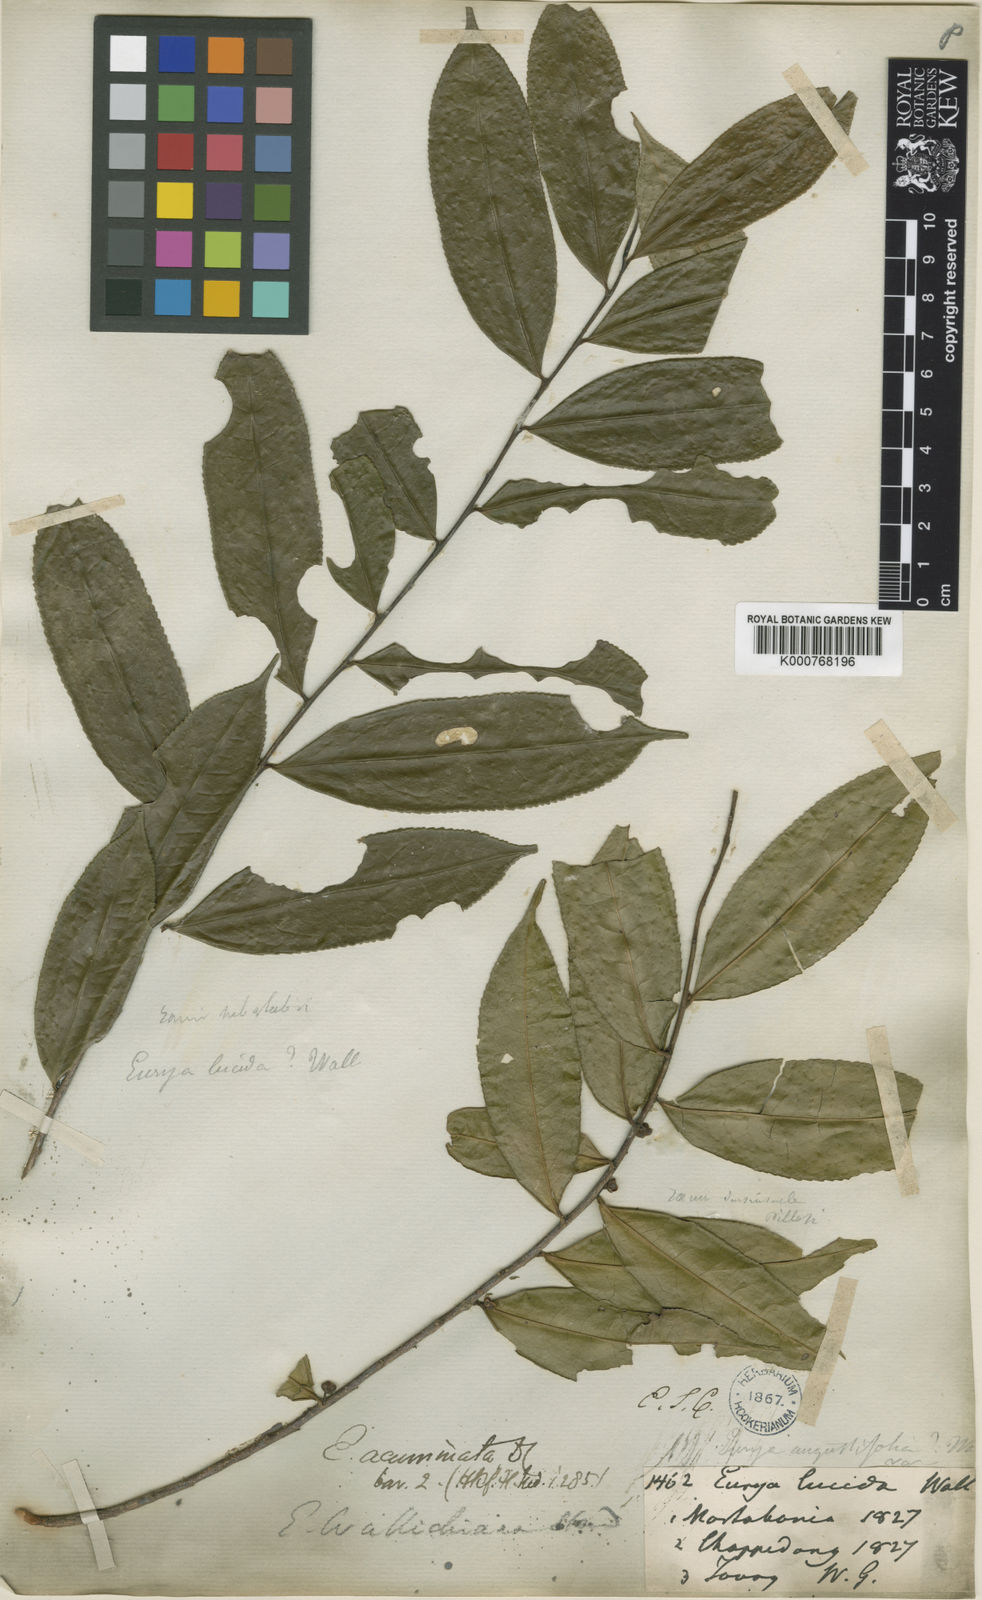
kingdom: Plantae
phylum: Tracheophyta
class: Magnoliopsida
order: Ericales
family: Pentaphylacaceae
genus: Eurya
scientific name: Eurya acuminata
